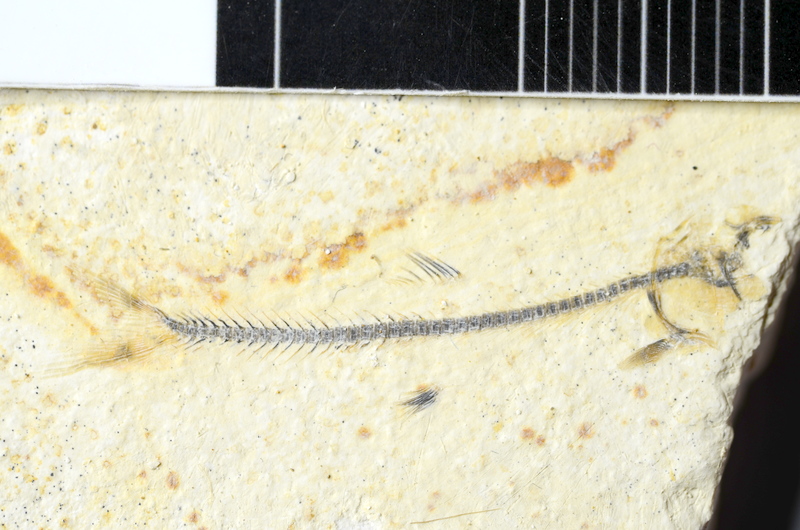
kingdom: Animalia
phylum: Chordata
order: Salmoniformes
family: Orthogonikleithridae
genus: Orthogonikleithrus
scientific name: Orthogonikleithrus hoelli
